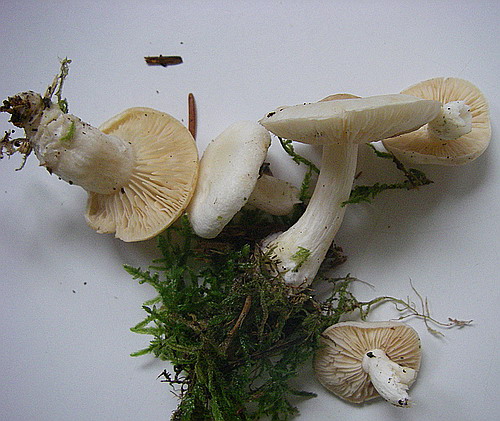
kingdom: Fungi
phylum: Basidiomycota
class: Agaricomycetes
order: Agaricales
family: Hymenogastraceae
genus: Gymnopilus
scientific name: Gymnopilus penetrans
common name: plettet flammehat
